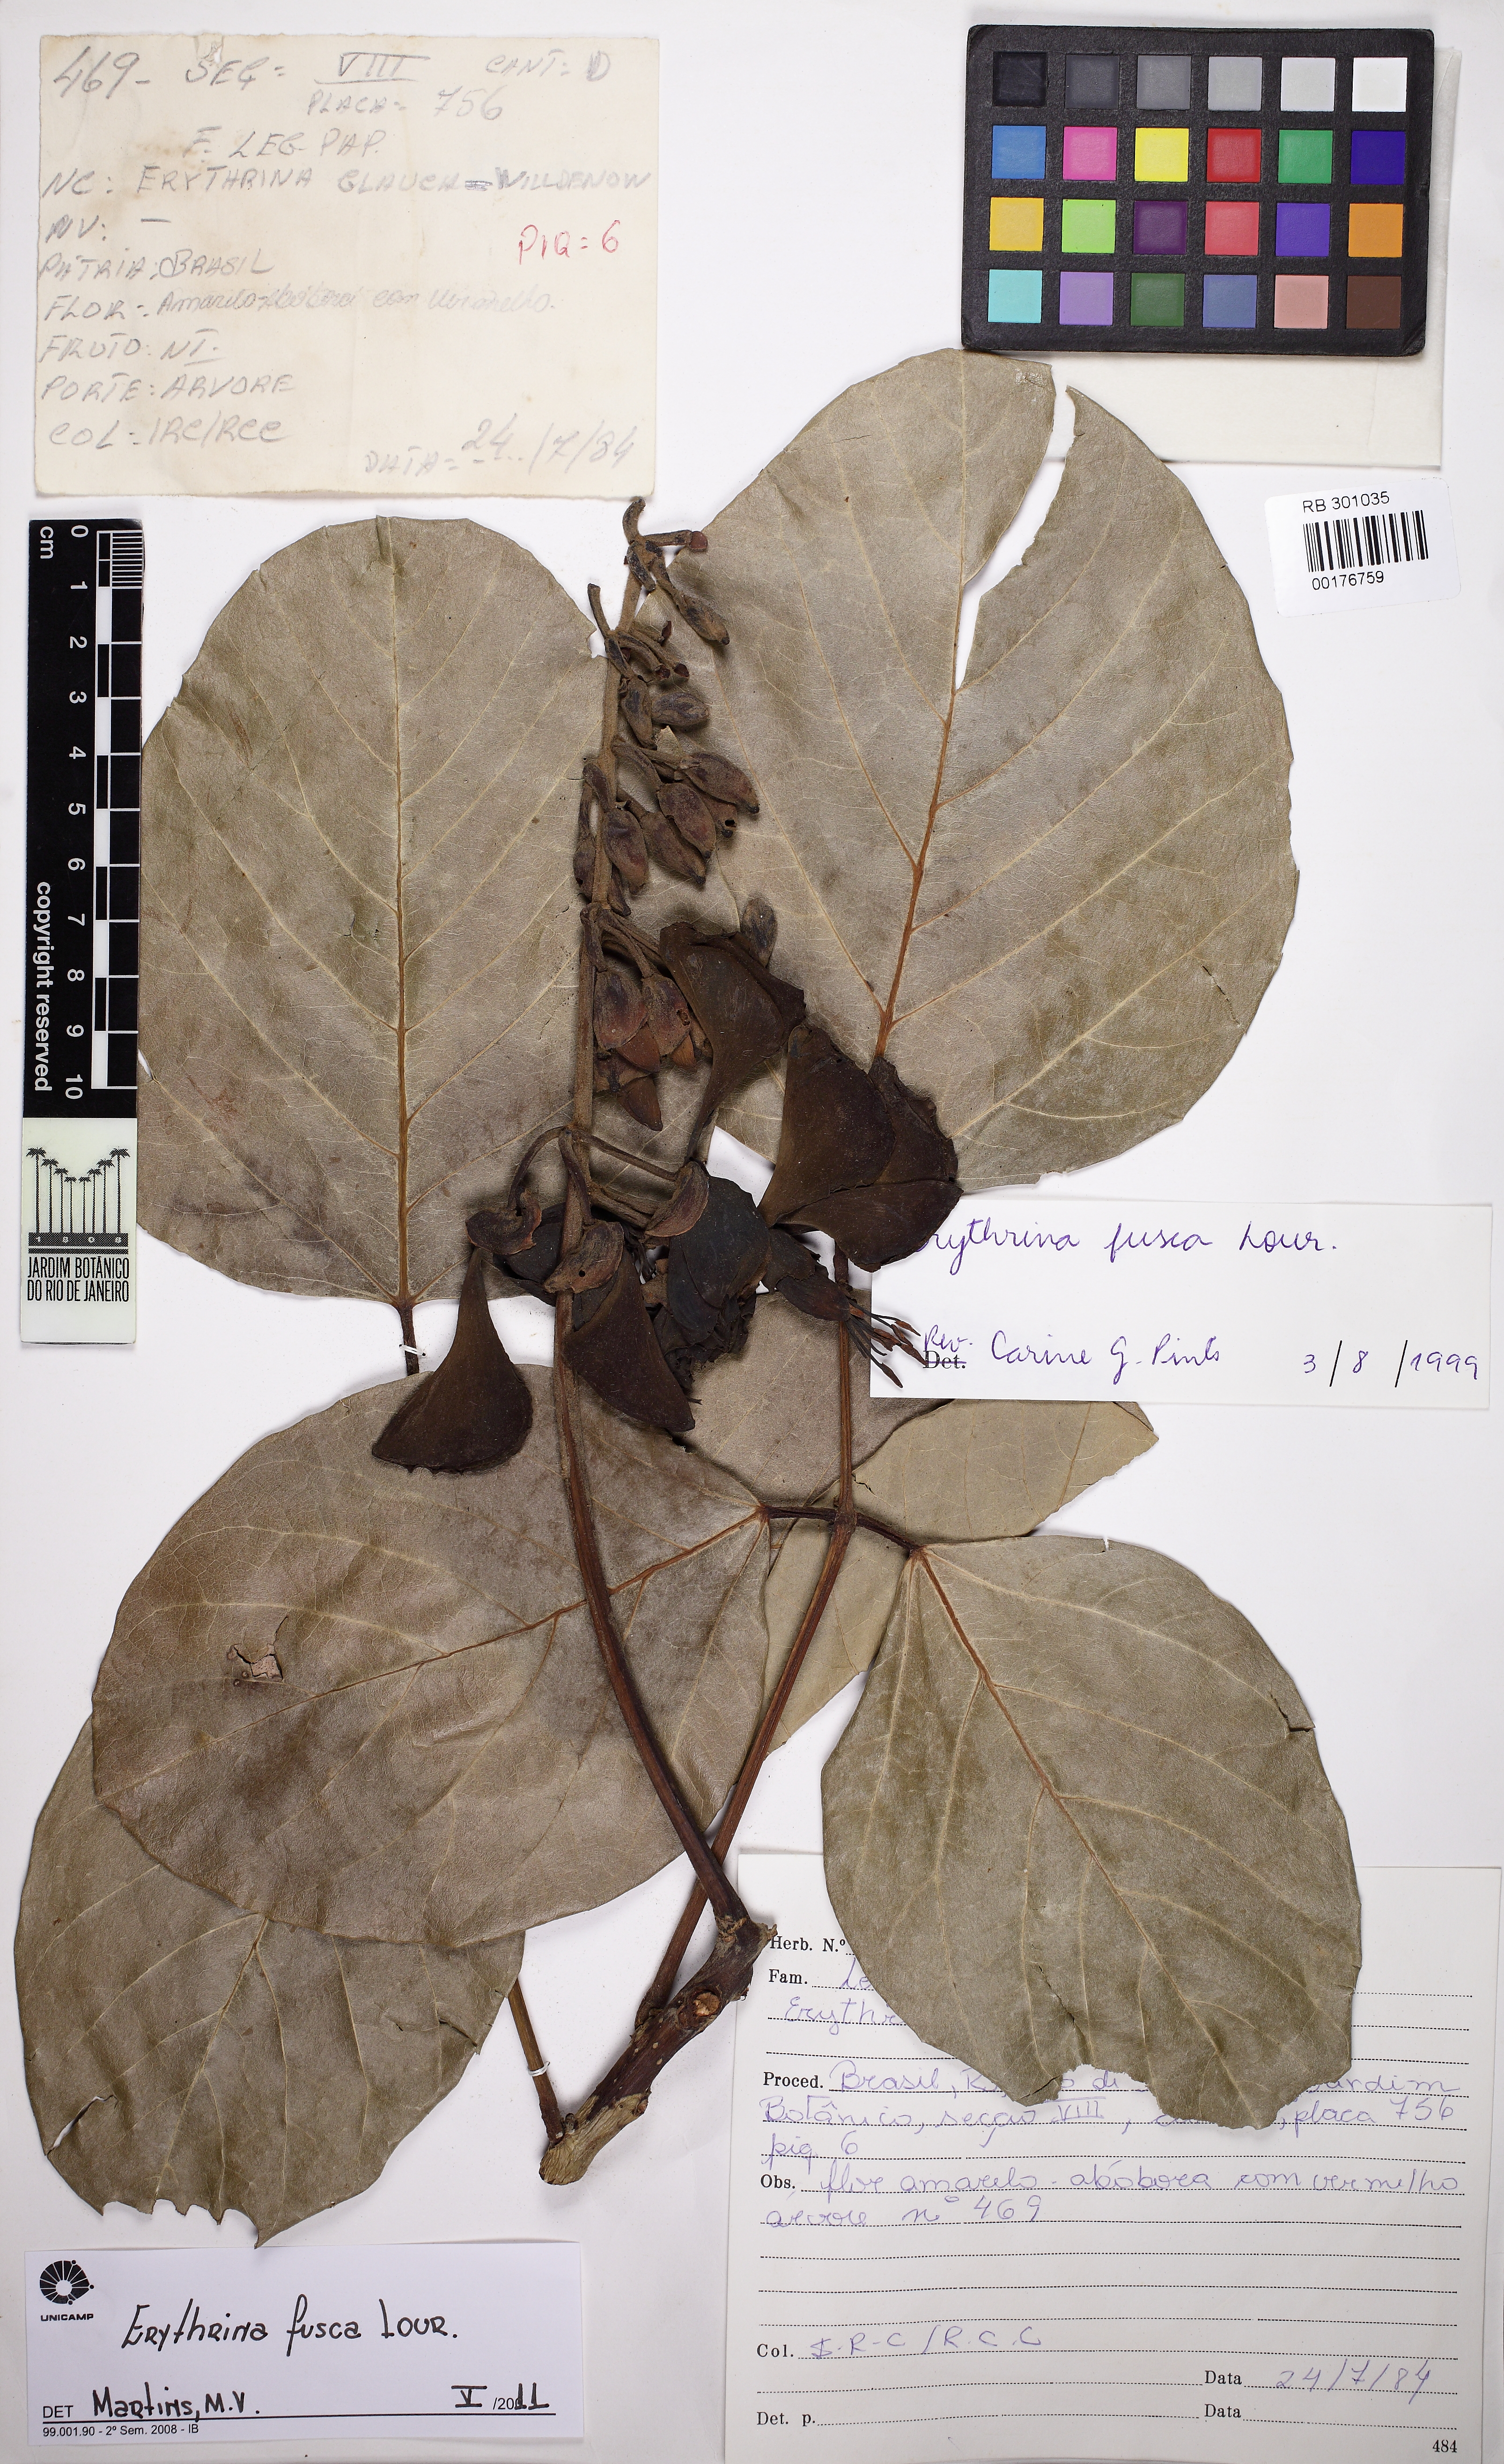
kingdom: Plantae
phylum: Tracheophyta
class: Magnoliopsida
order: Fabales
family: Fabaceae
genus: Erythrina
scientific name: Erythrina fusca
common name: Coral-bean
